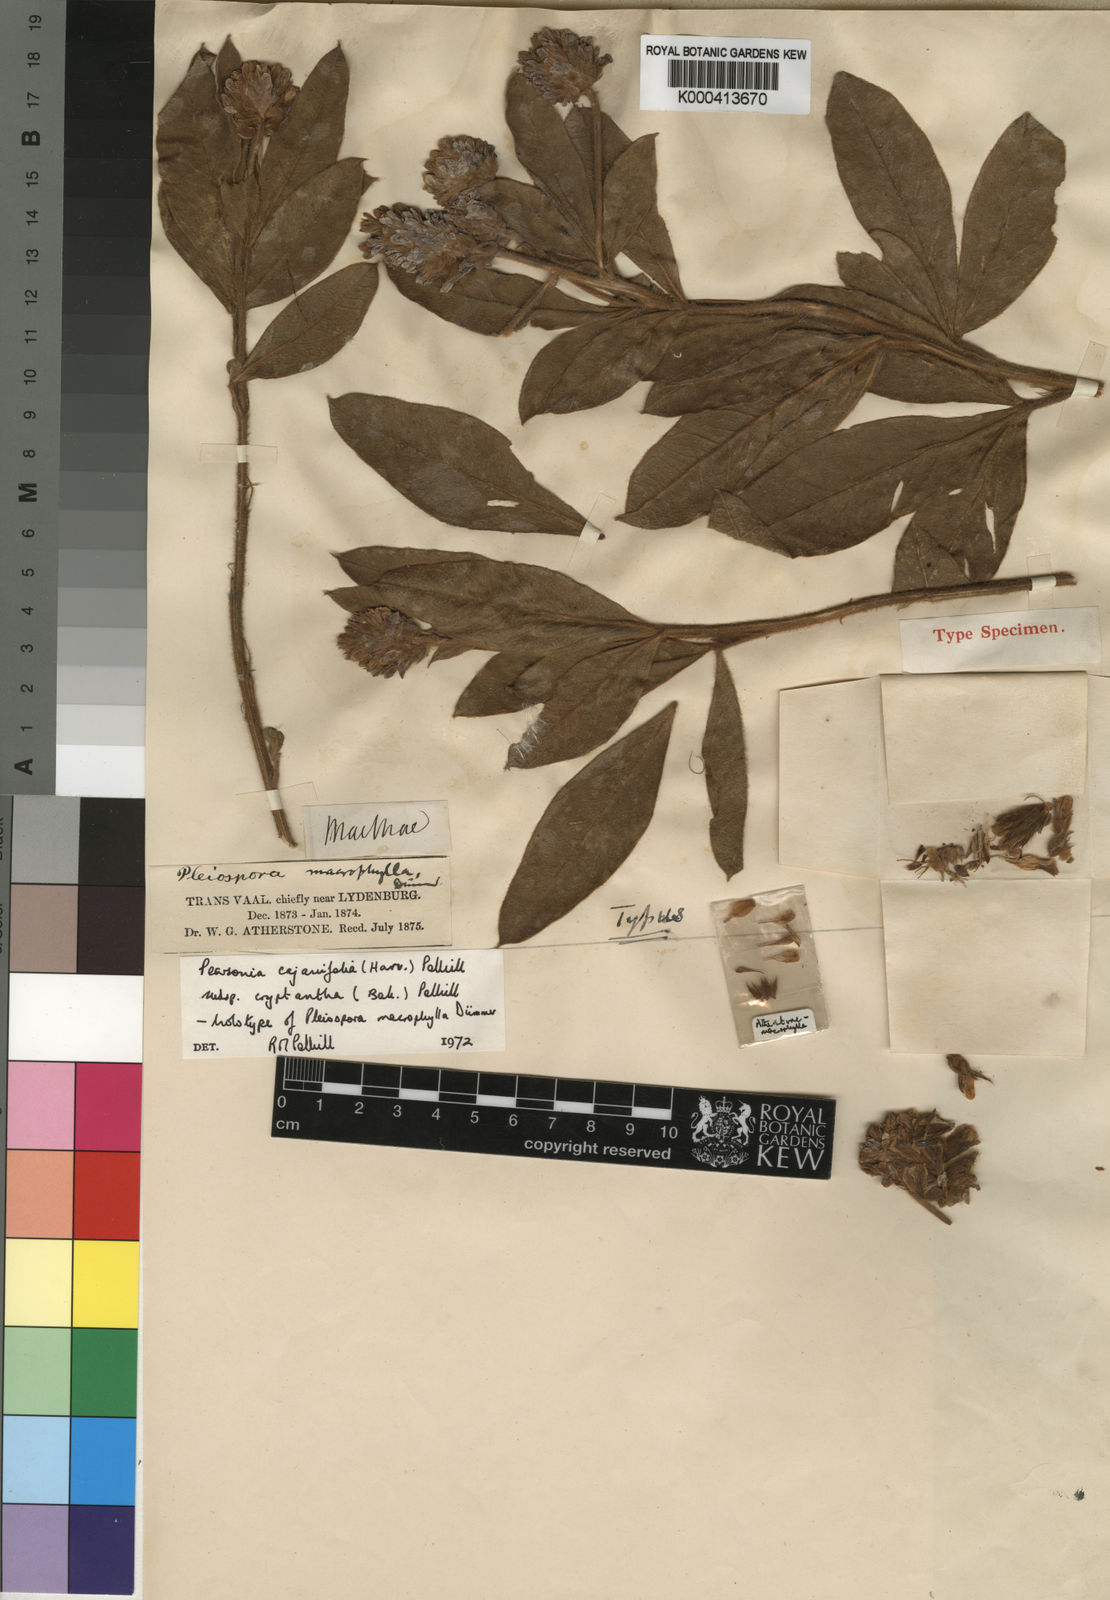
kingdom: Plantae
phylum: Tracheophyta
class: Magnoliopsida
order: Fabales
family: Fabaceae
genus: Pearsonia
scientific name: Pearsonia cajanifolia
